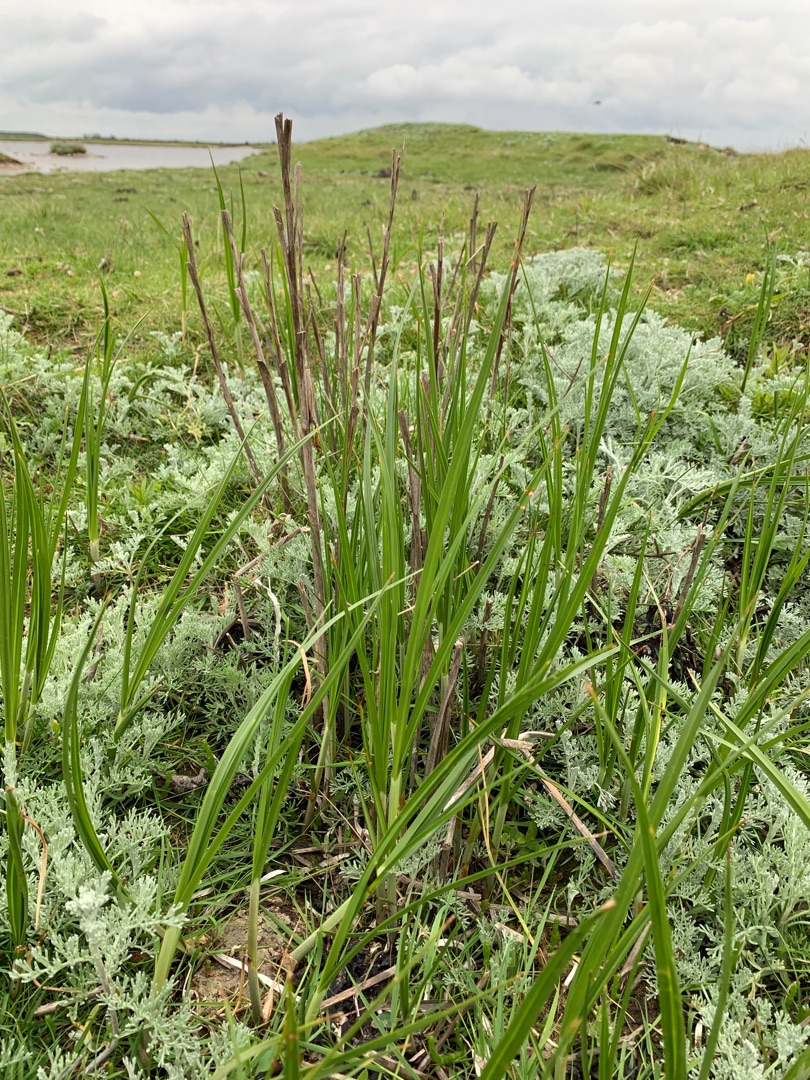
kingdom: Plantae
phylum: Tracheophyta
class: Liliopsida
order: Poales
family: Cyperaceae
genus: Bolboschoenus
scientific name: Bolboschoenus maritimus
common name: Strand-kogleaks
